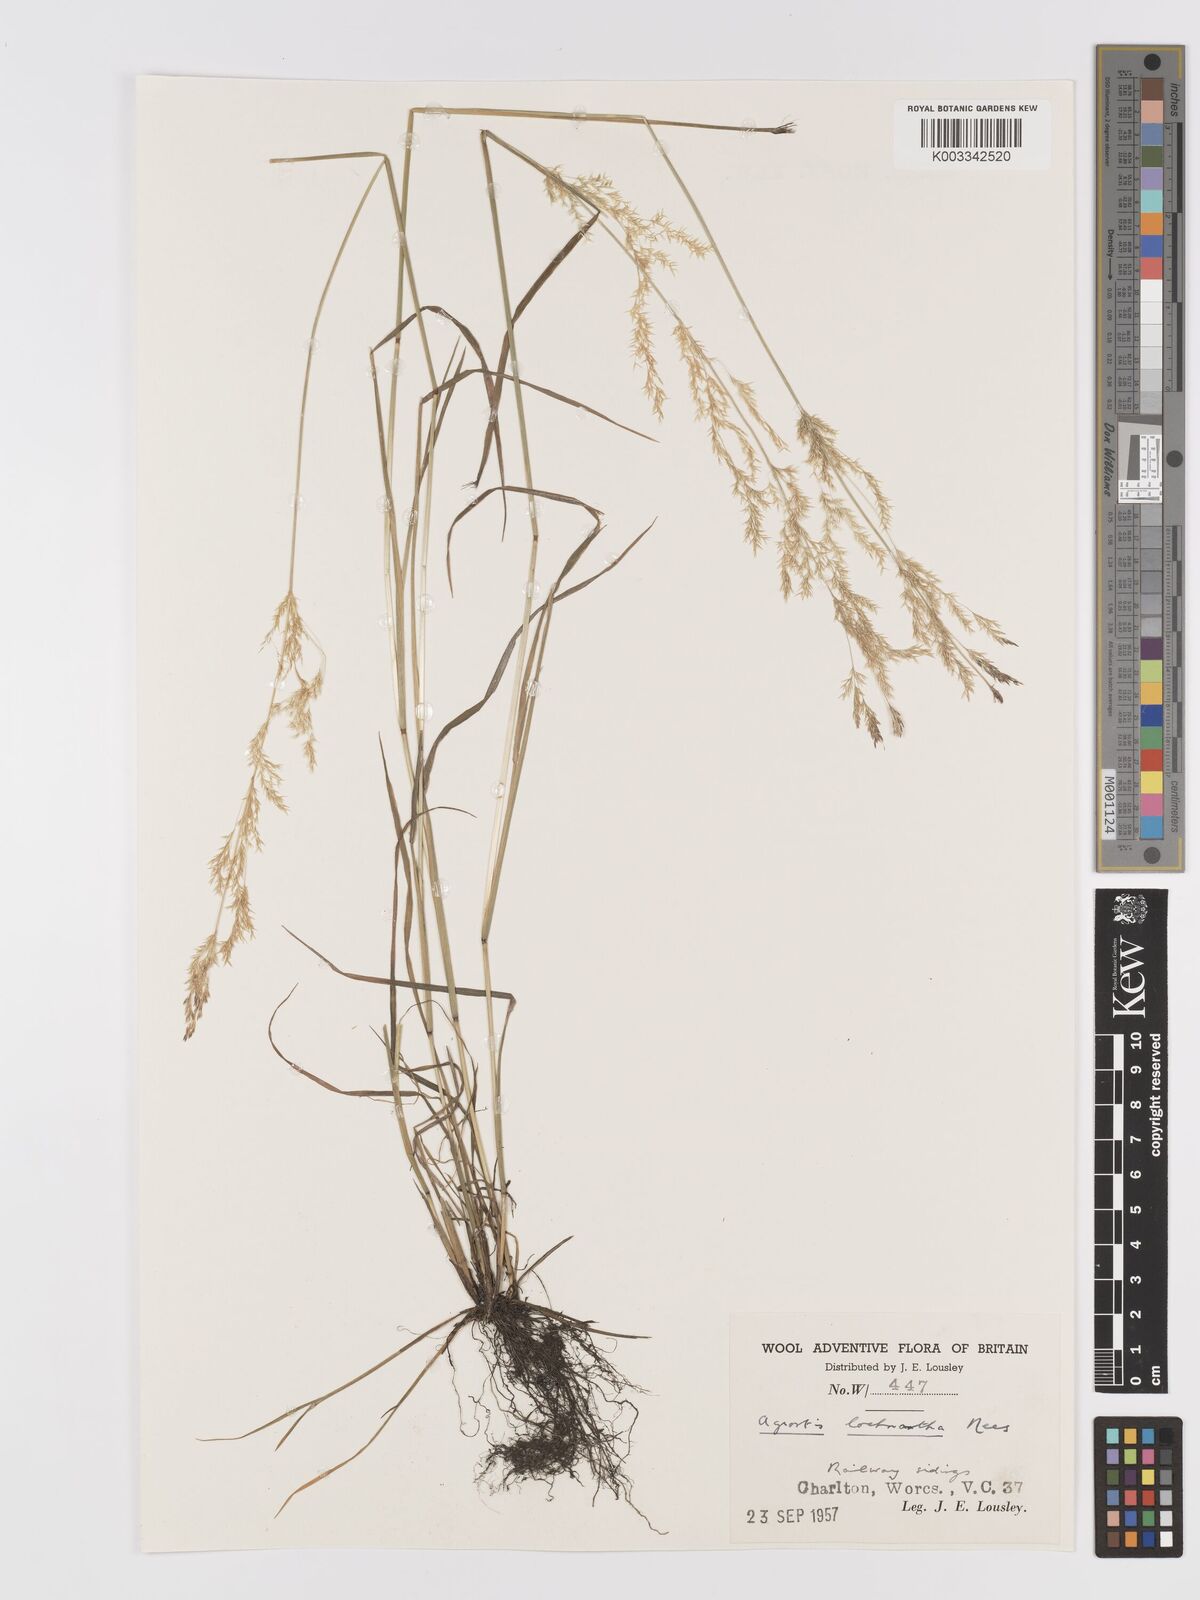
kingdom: Plantae
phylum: Tracheophyta
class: Liliopsida
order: Poales
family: Poaceae
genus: Lachnagrostis
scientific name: Lachnagrostis lachnantha
